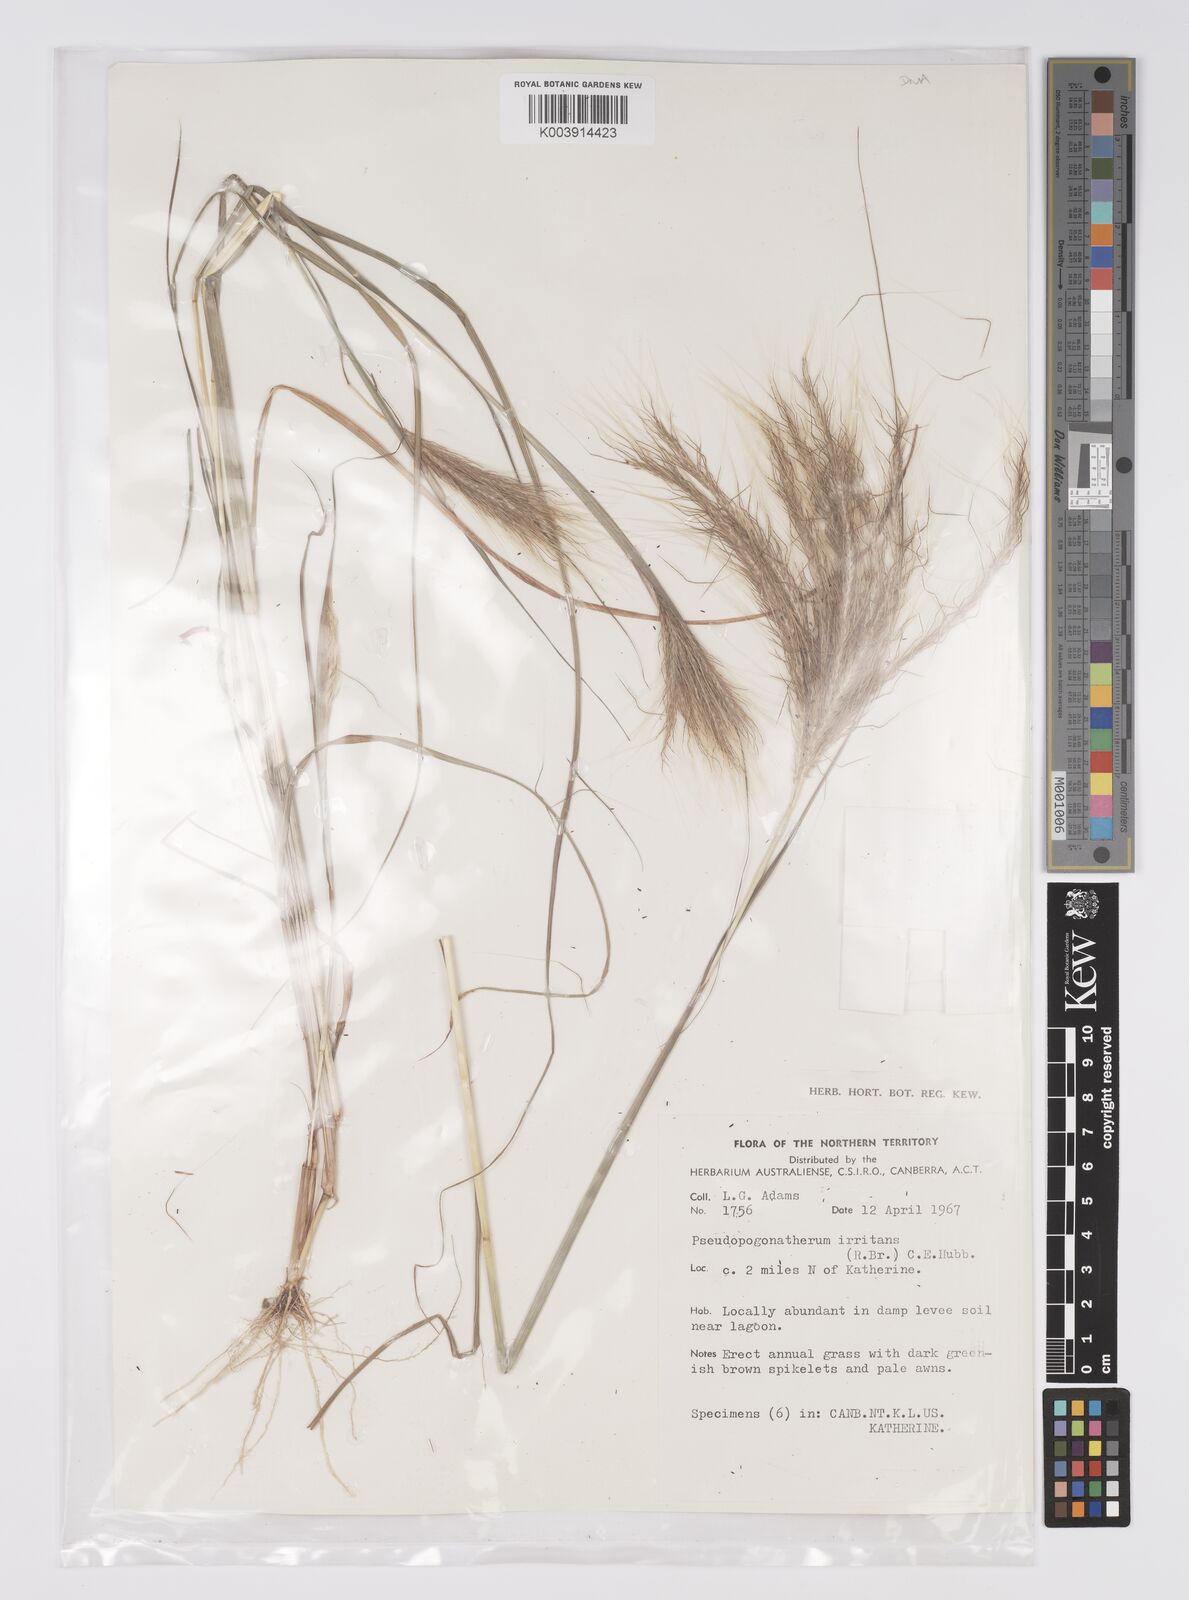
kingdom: Plantae
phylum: Tracheophyta
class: Liliopsida
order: Poales
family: Poaceae
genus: Pseudopogonatherum
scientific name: Pseudopogonatherum irritans
